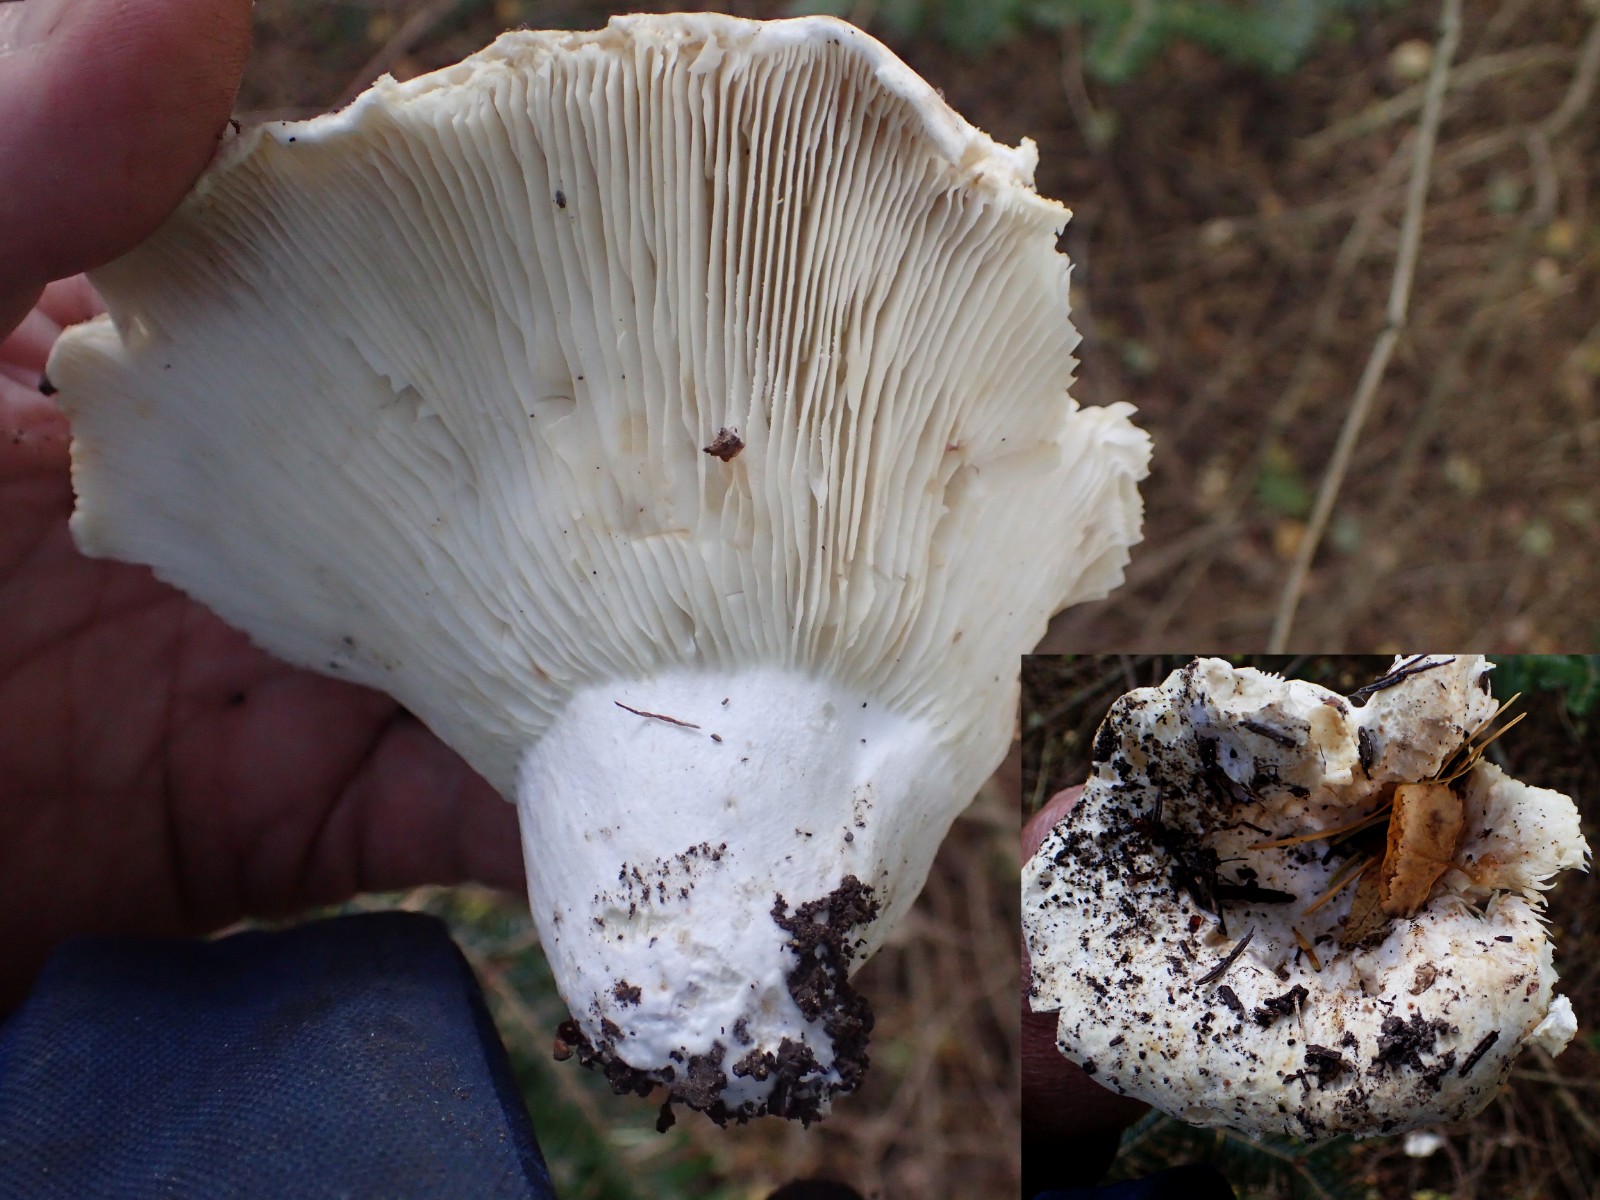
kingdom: Fungi
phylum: Basidiomycota
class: Agaricomycetes
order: Russulales
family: Russulaceae
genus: Russula
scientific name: Russula delica
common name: almindelig tragt-skørhat
